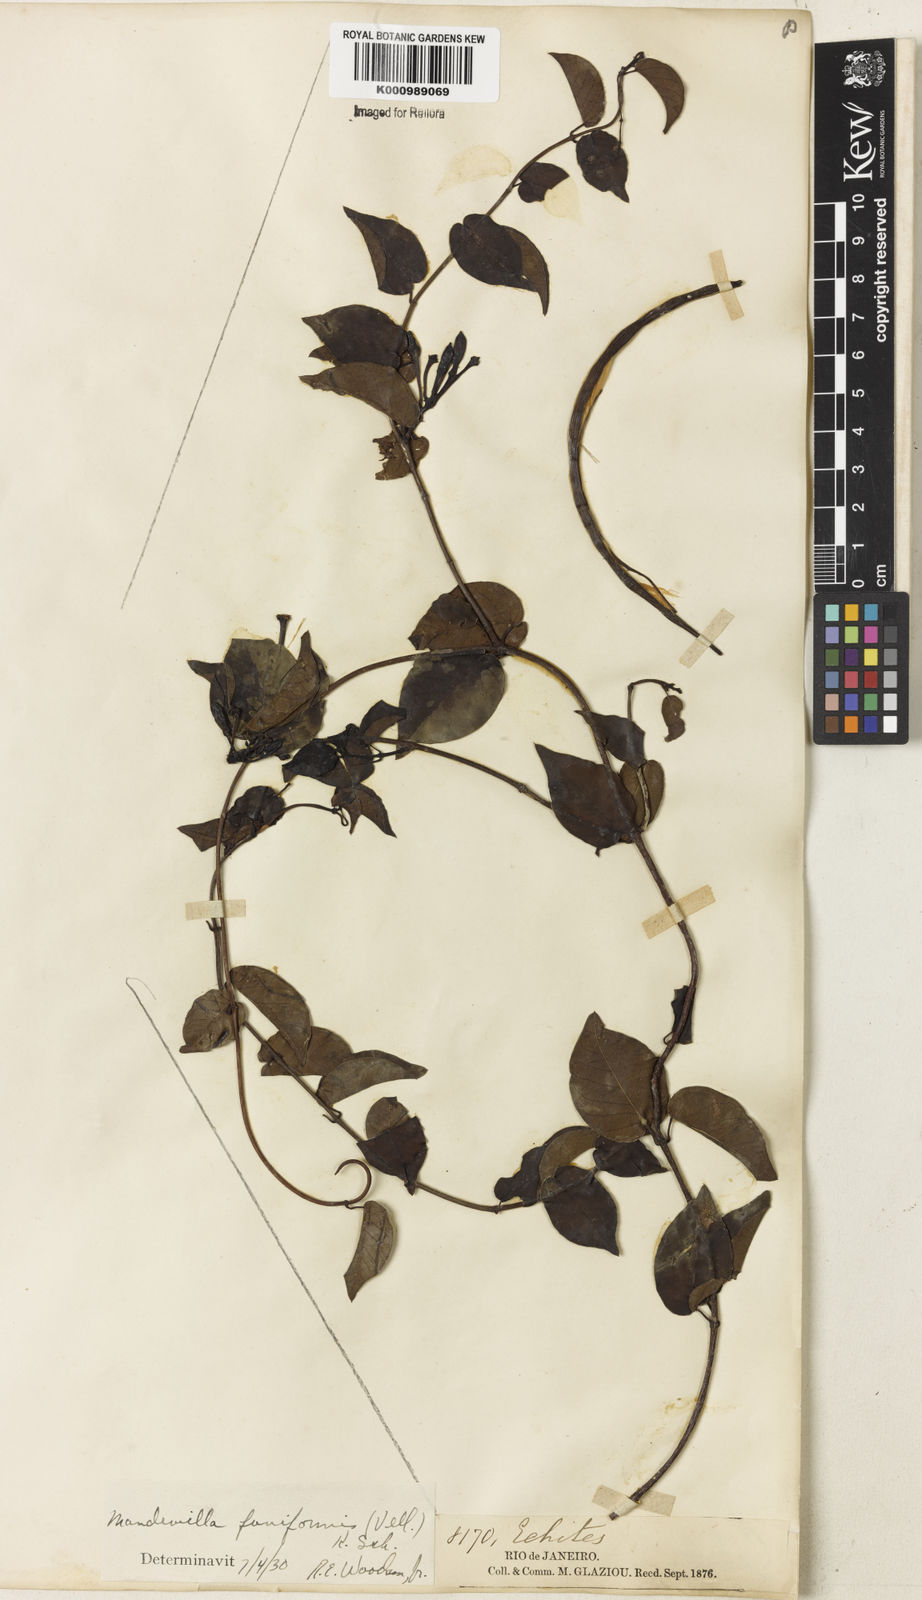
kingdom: Plantae
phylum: Tracheophyta
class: Magnoliopsida
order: Gentianales
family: Apocynaceae
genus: Mandevilla
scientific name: Mandevilla funiformis
